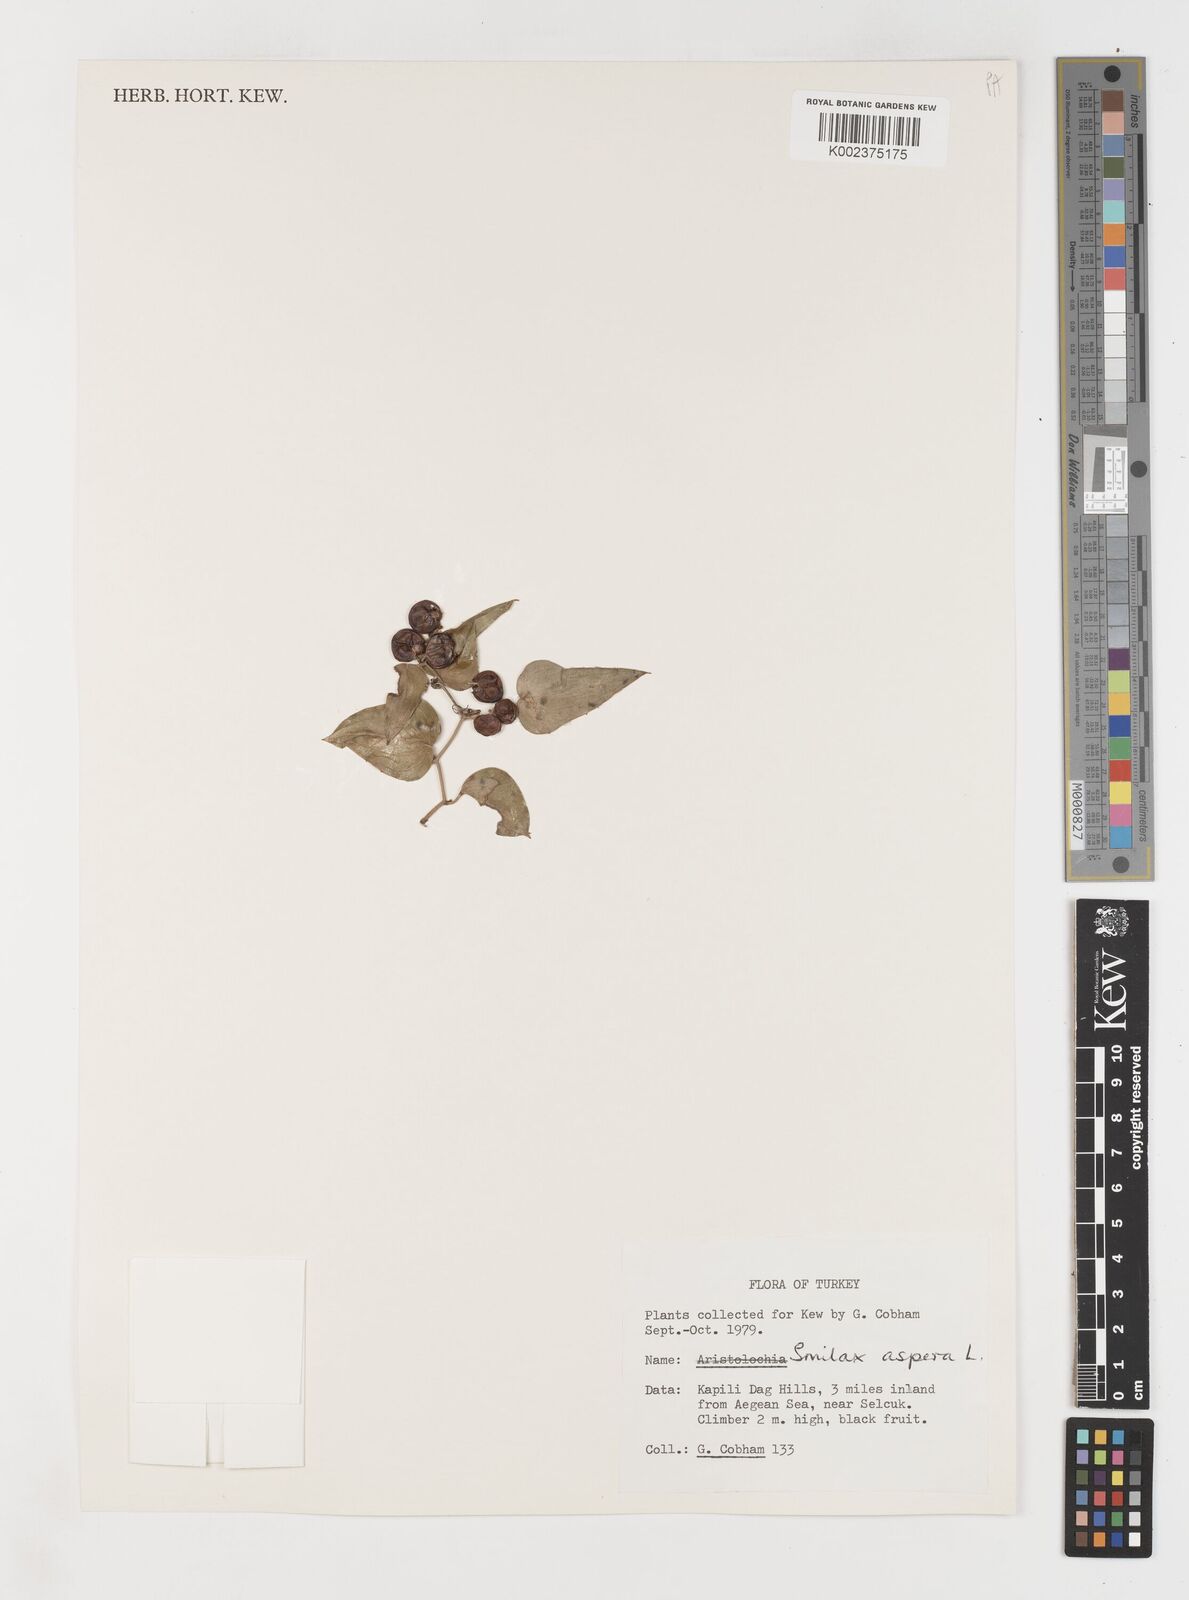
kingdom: Plantae
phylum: Tracheophyta
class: Liliopsida
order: Liliales
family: Smilacaceae
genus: Smilax
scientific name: Smilax aspera
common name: Common smilax
